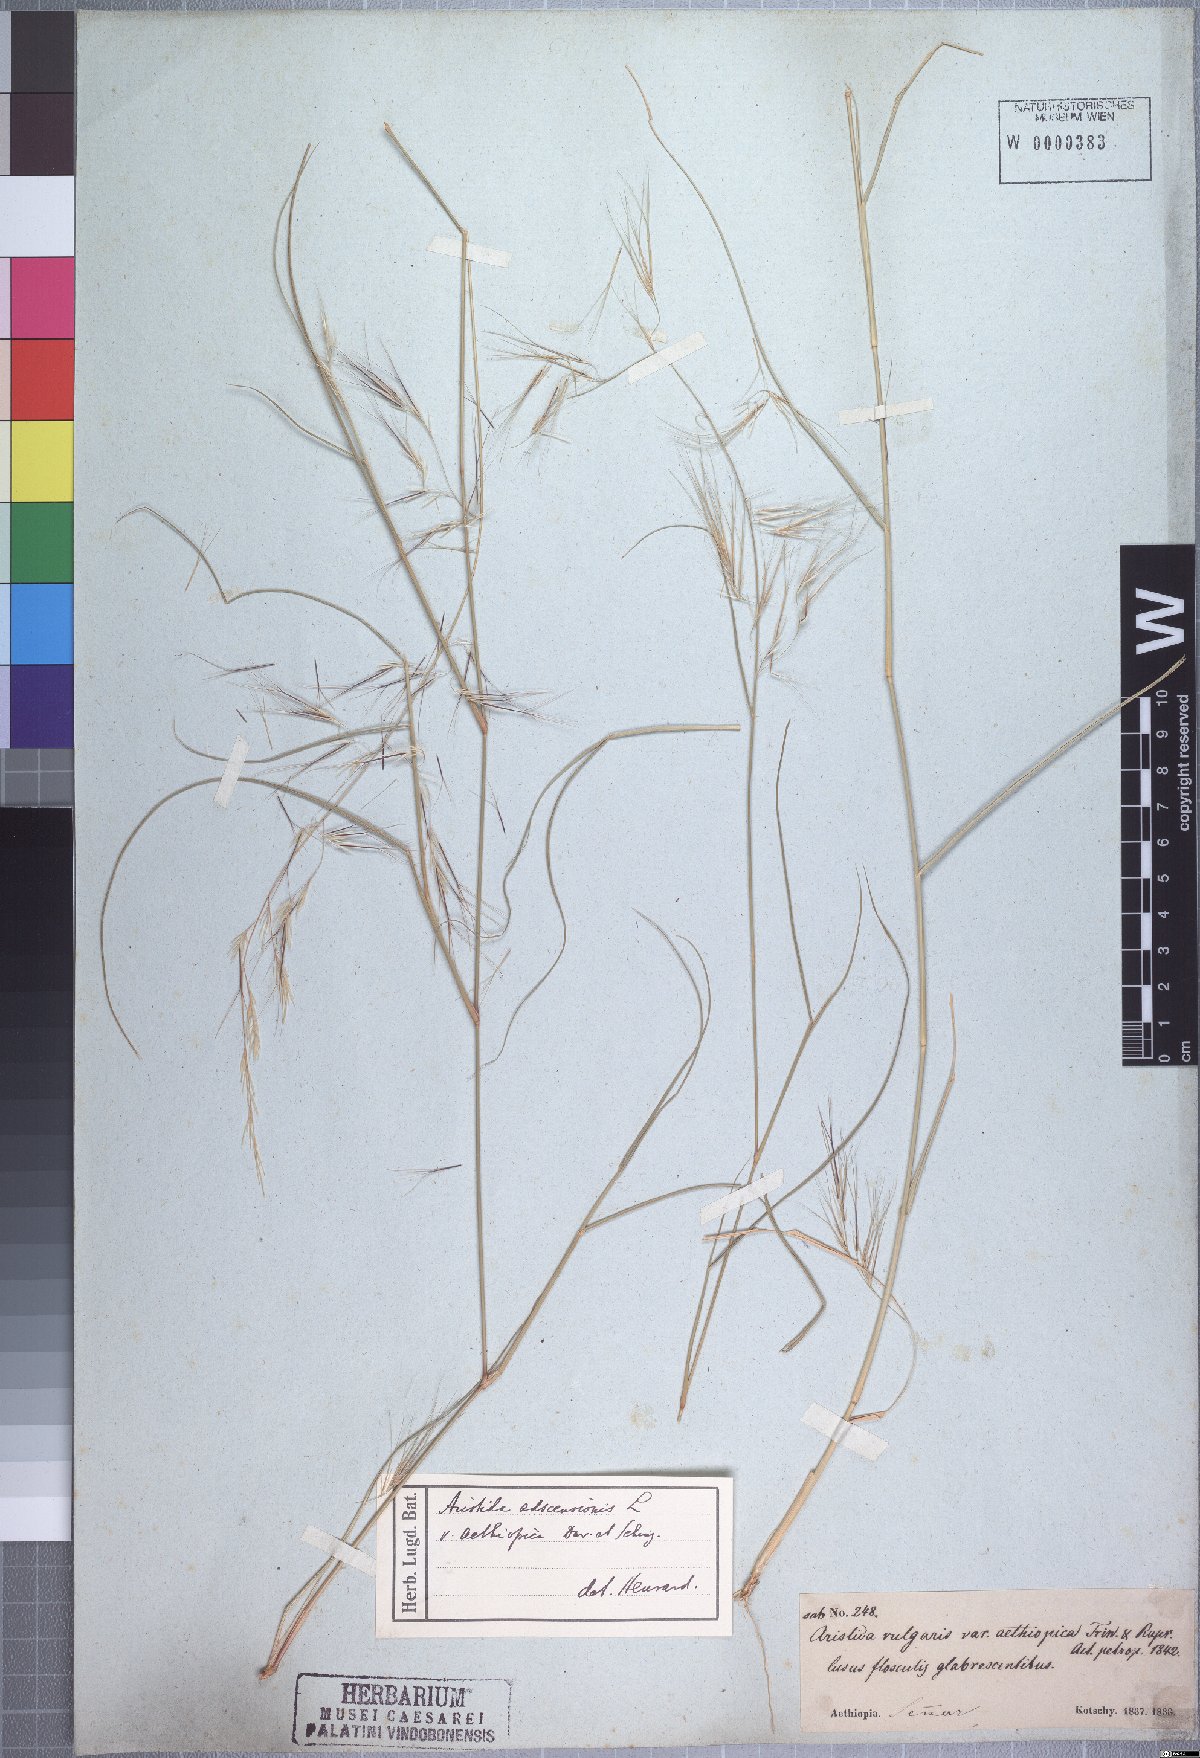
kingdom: Plantae
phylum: Tracheophyta
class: Liliopsida
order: Poales
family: Poaceae
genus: Aristida
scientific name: Aristida adscensionis
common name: Sixweeks threeawn
